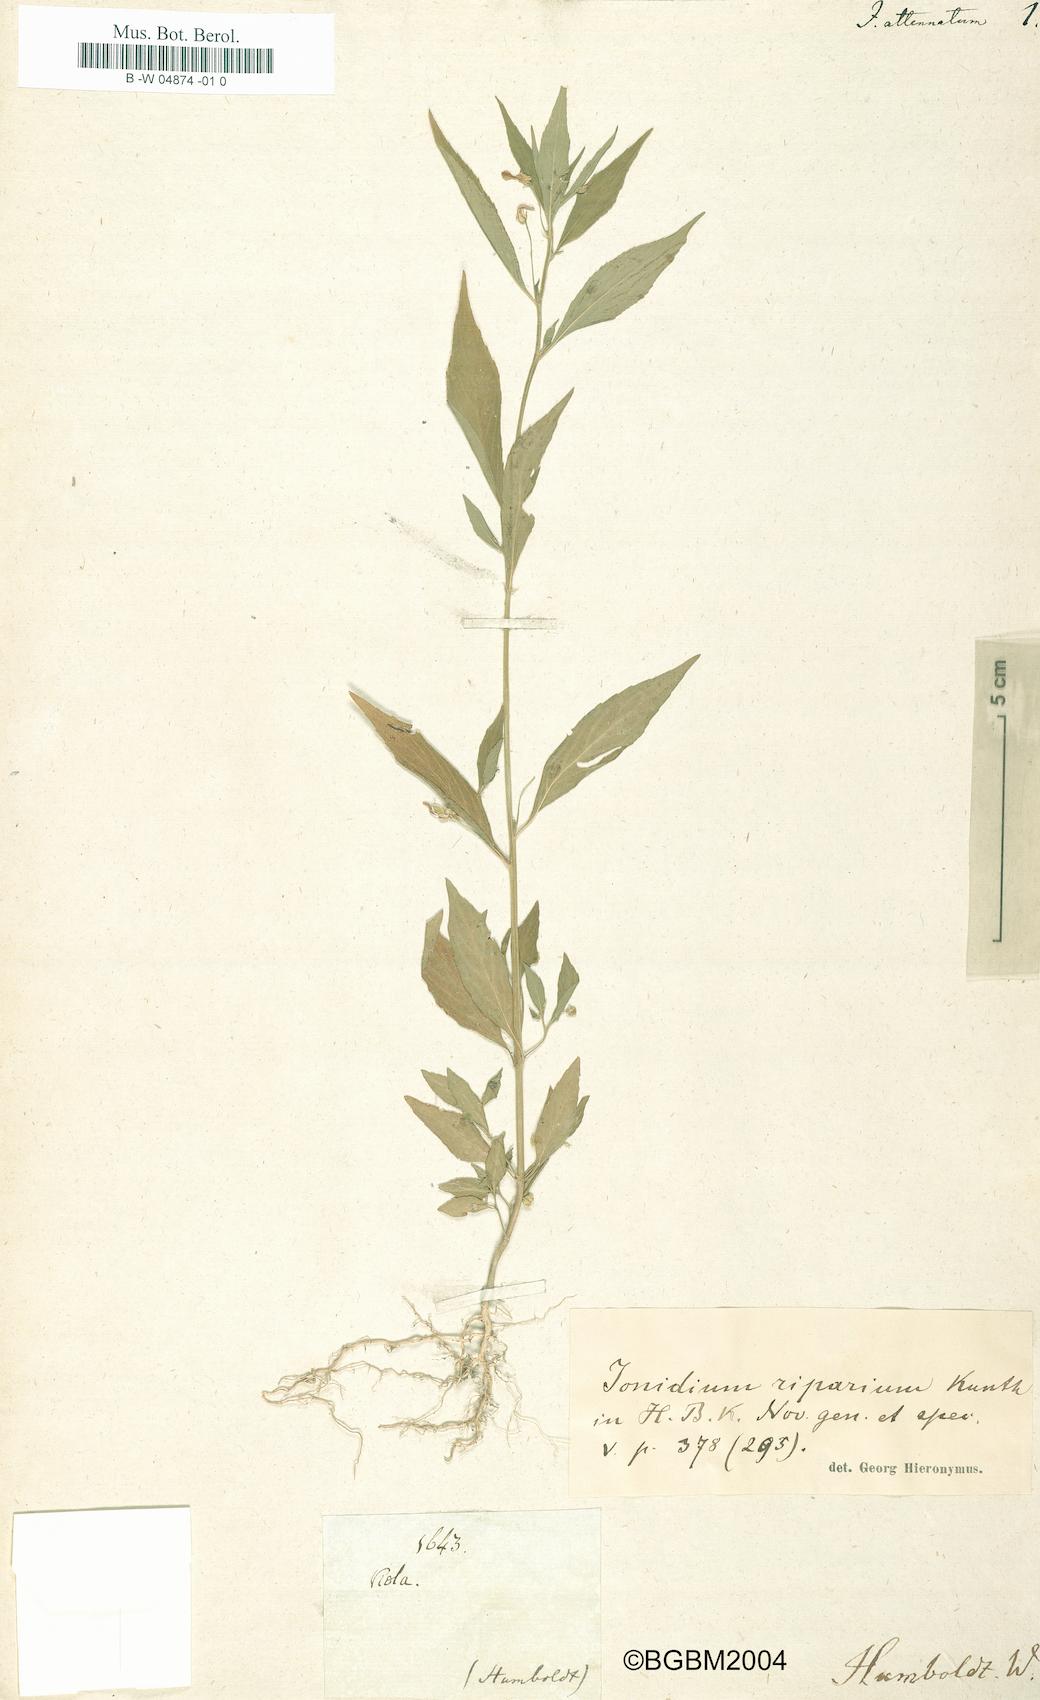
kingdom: Plantae
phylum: Tracheophyta
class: Magnoliopsida
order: Malpighiales
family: Violaceae
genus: Pombalia
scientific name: Pombalia attenuata
